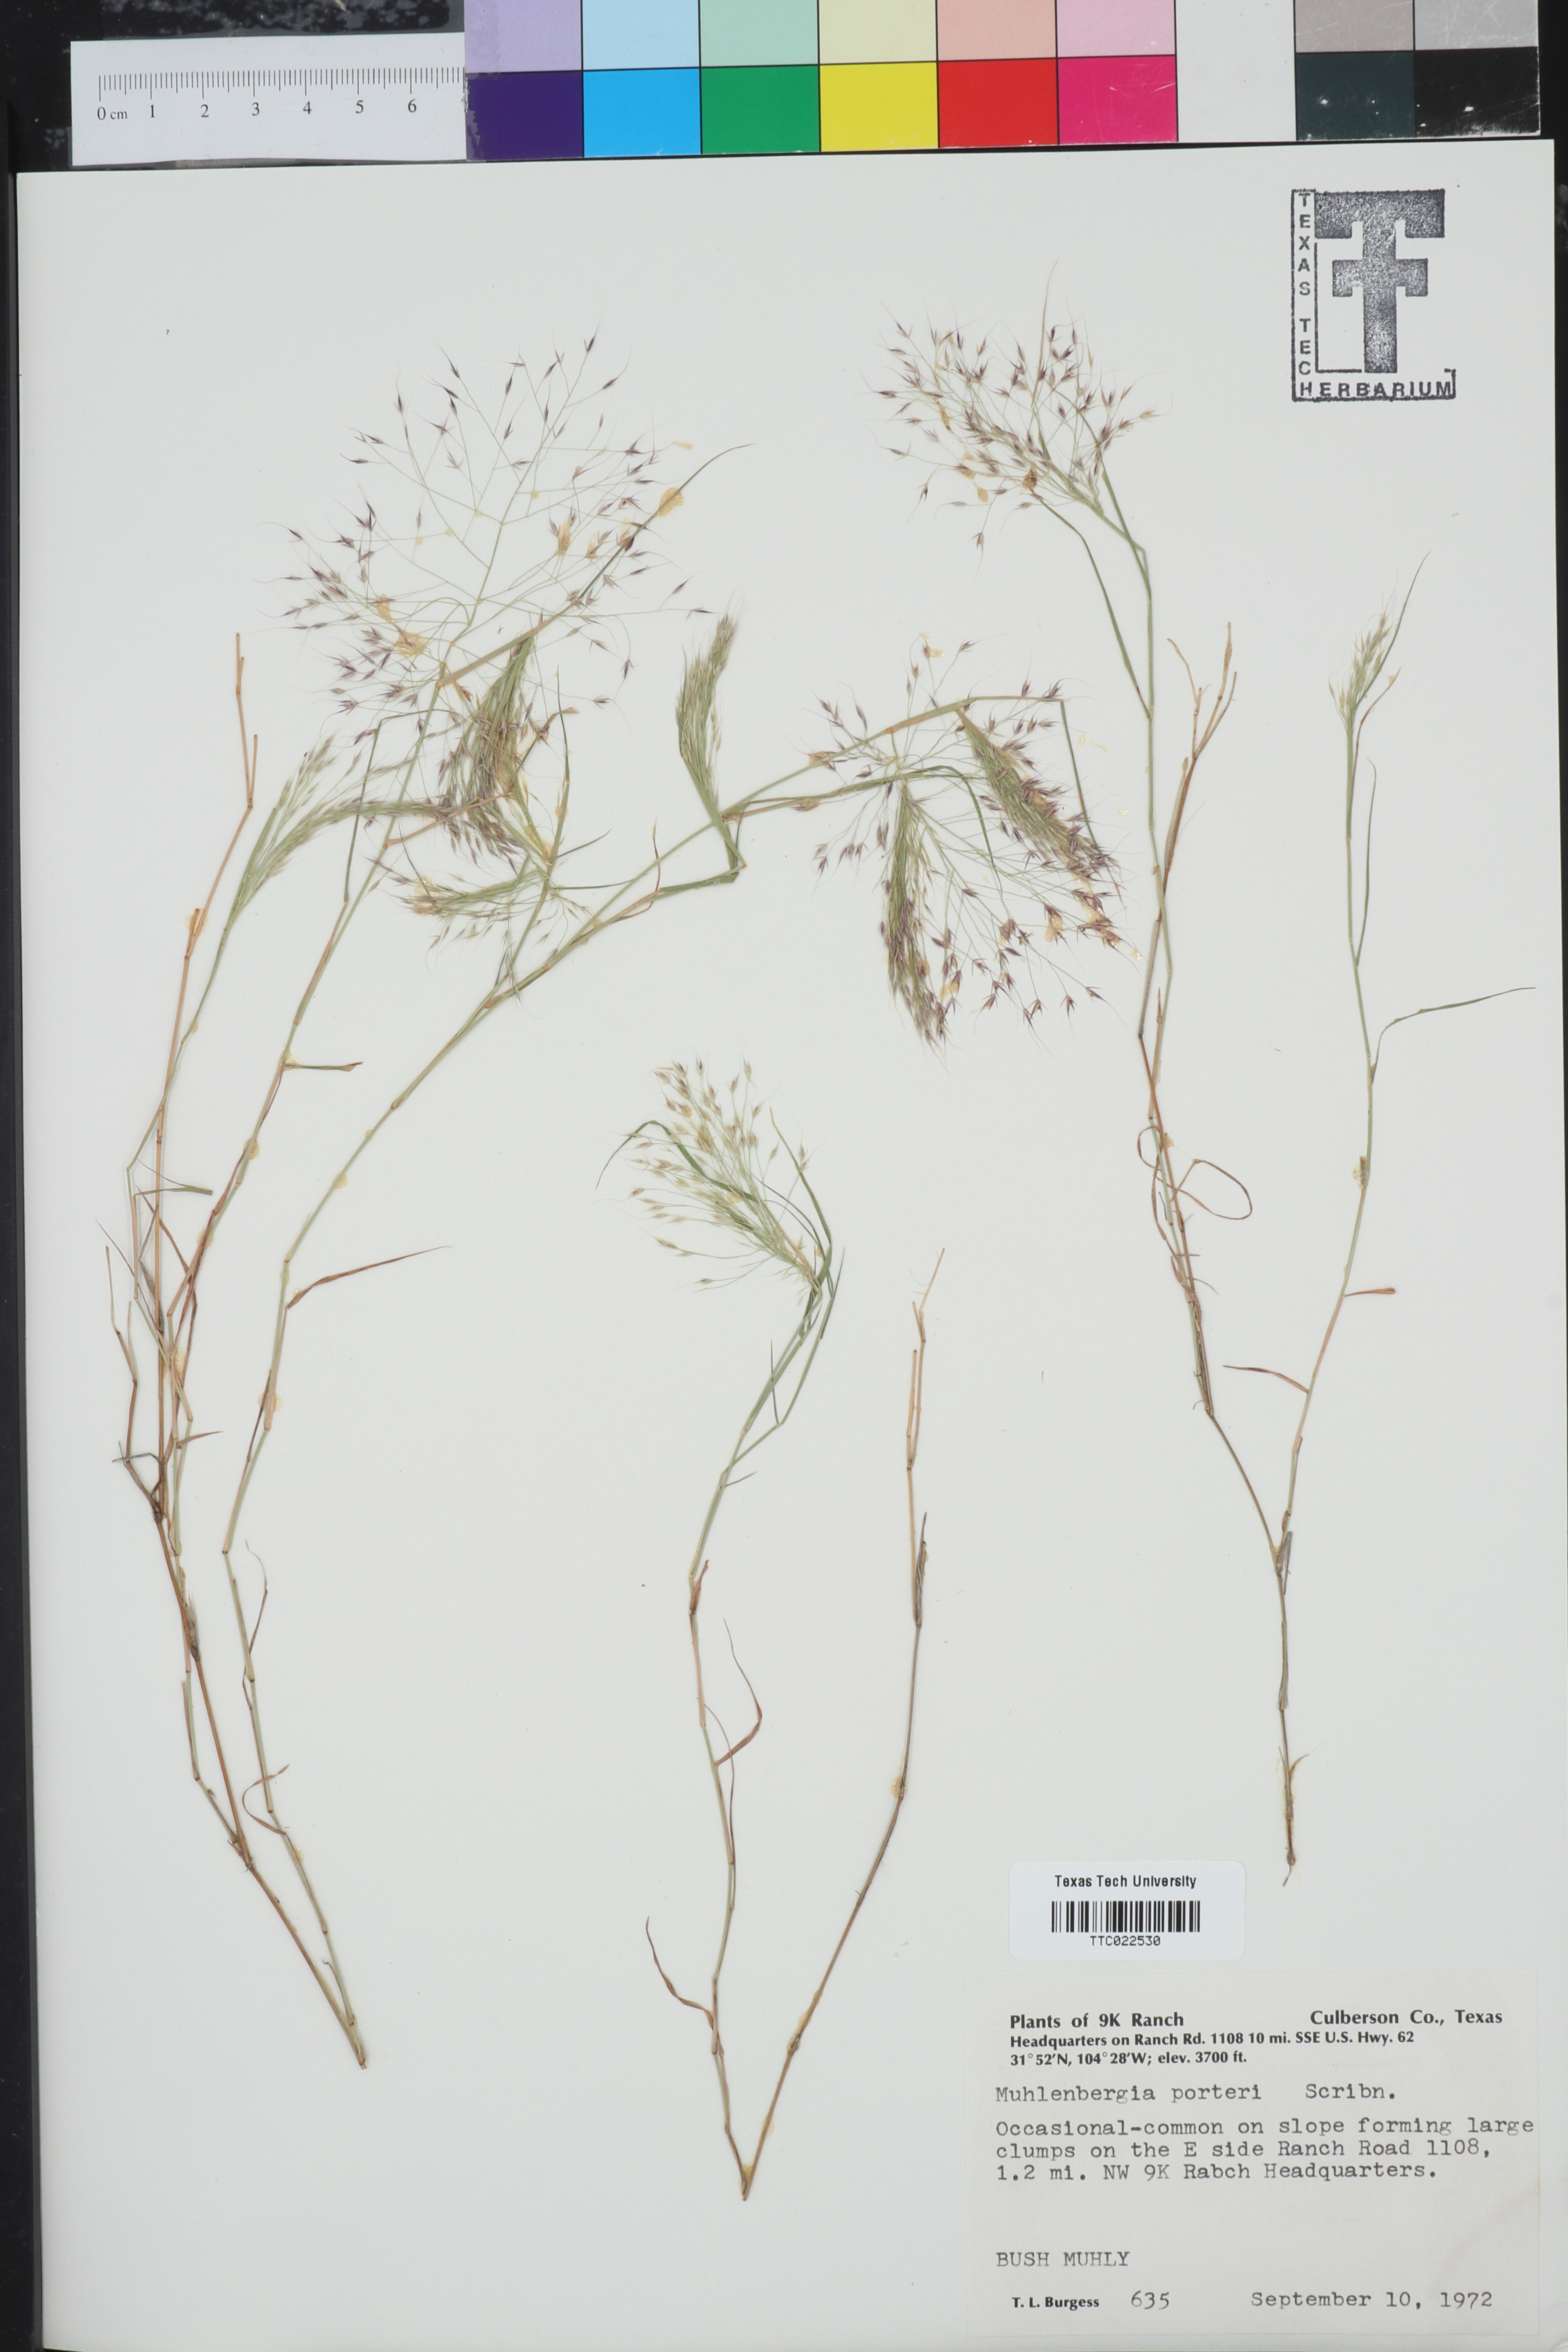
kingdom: Plantae
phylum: Tracheophyta
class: Liliopsida
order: Poales
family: Poaceae
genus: Muhlenbergia
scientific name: Muhlenbergia porteri
